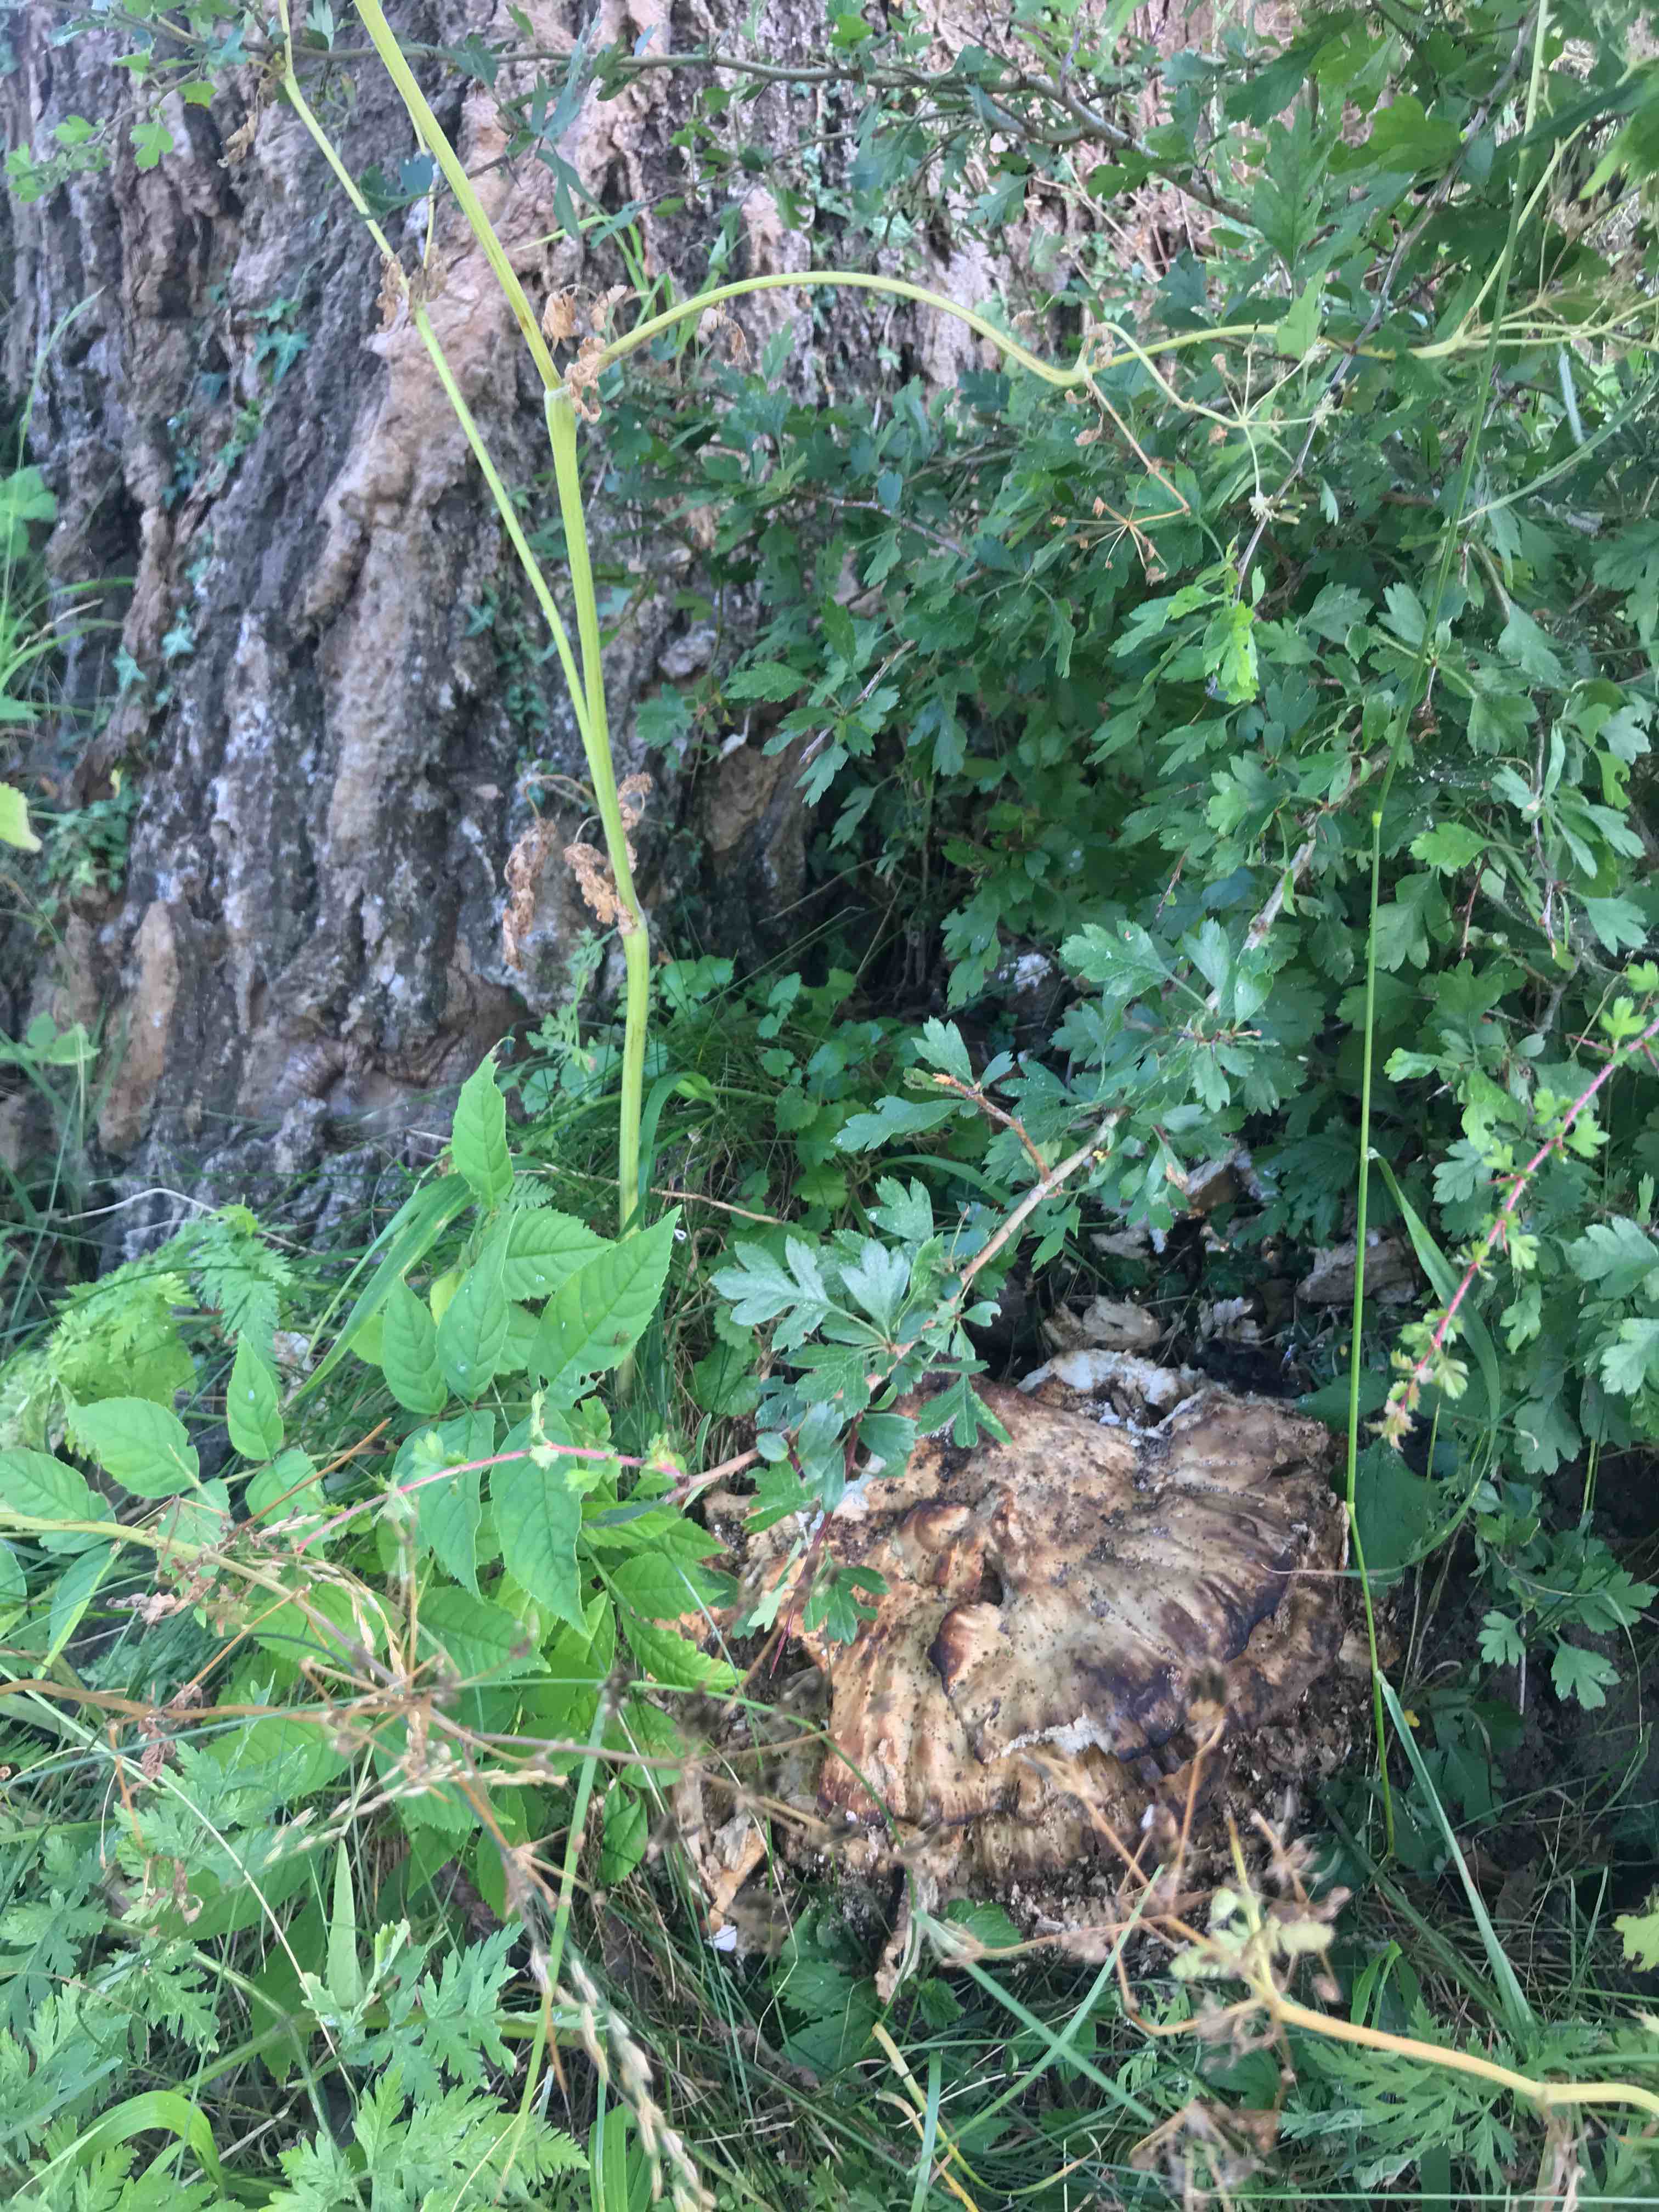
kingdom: Fungi
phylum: Basidiomycota
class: Agaricomycetes
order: Polyporales
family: Laetiporaceae
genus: Laetiporus
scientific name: Laetiporus sulphureus
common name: svovlporesvamp
